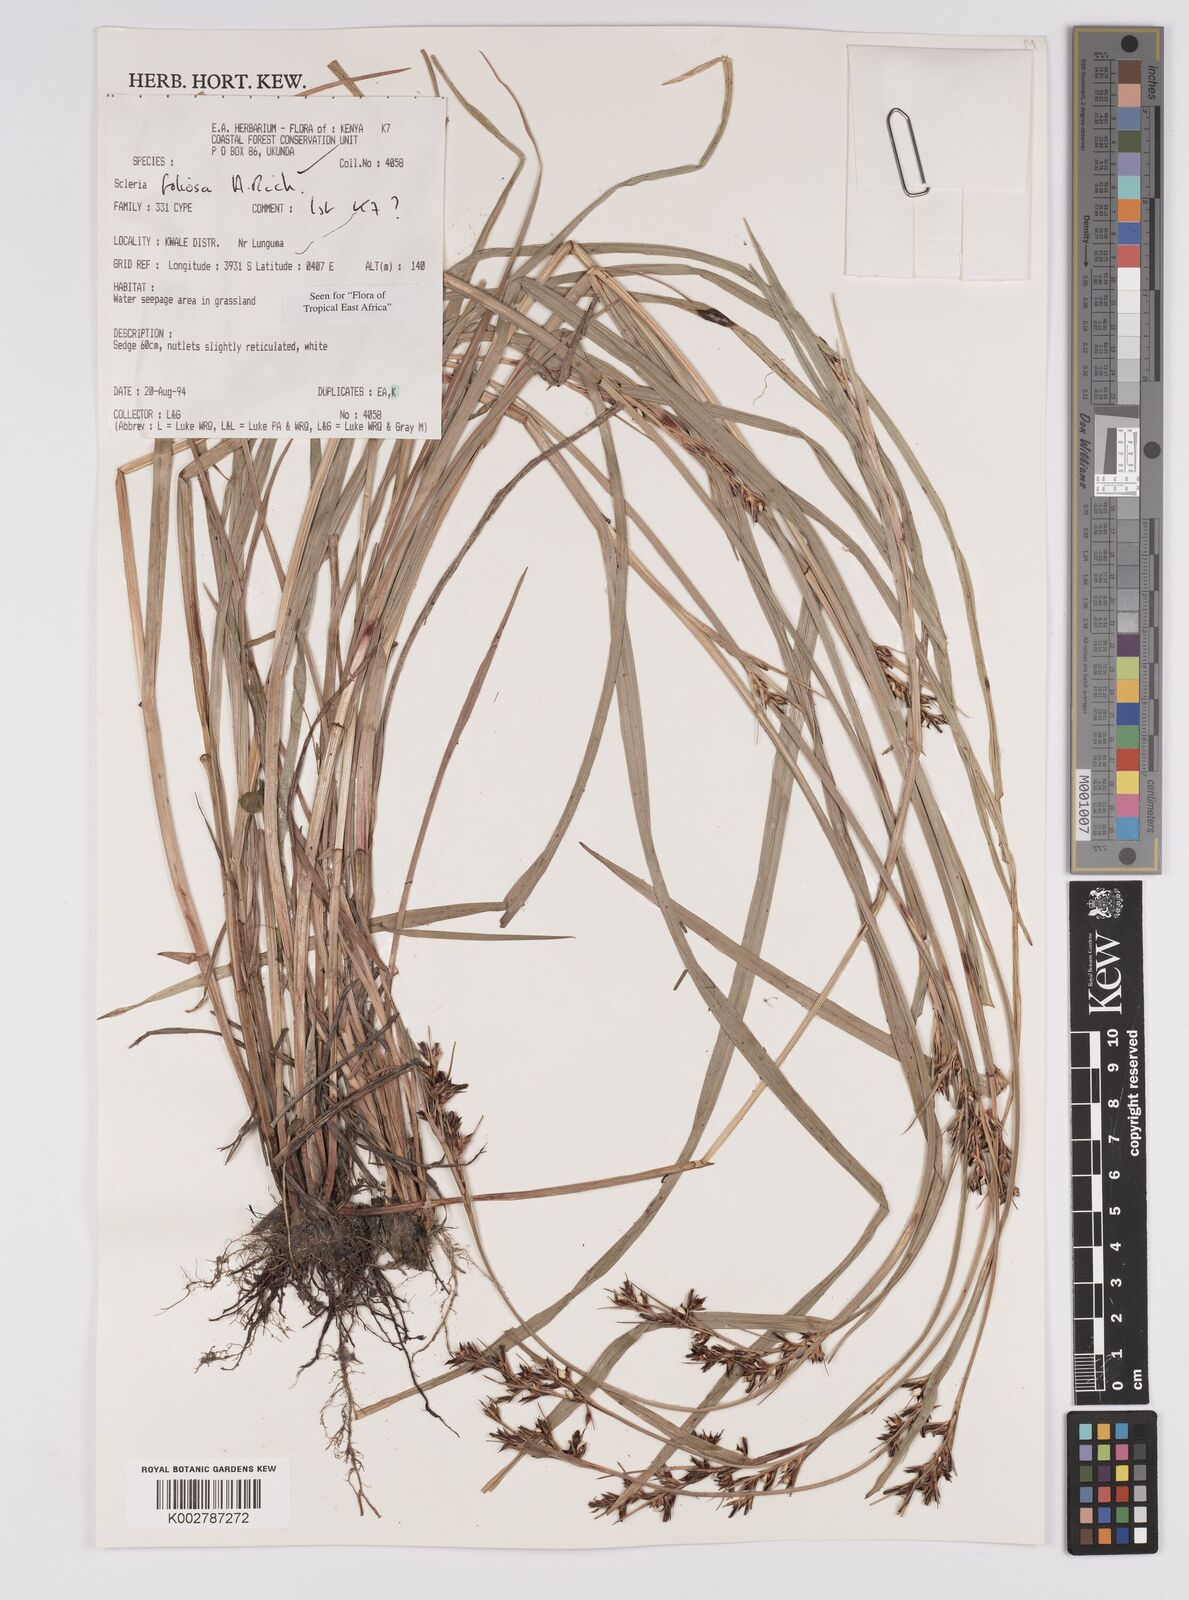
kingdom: Plantae
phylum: Tracheophyta
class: Liliopsida
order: Poales
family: Cyperaceae
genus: Scleria
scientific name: Scleria foliosa
